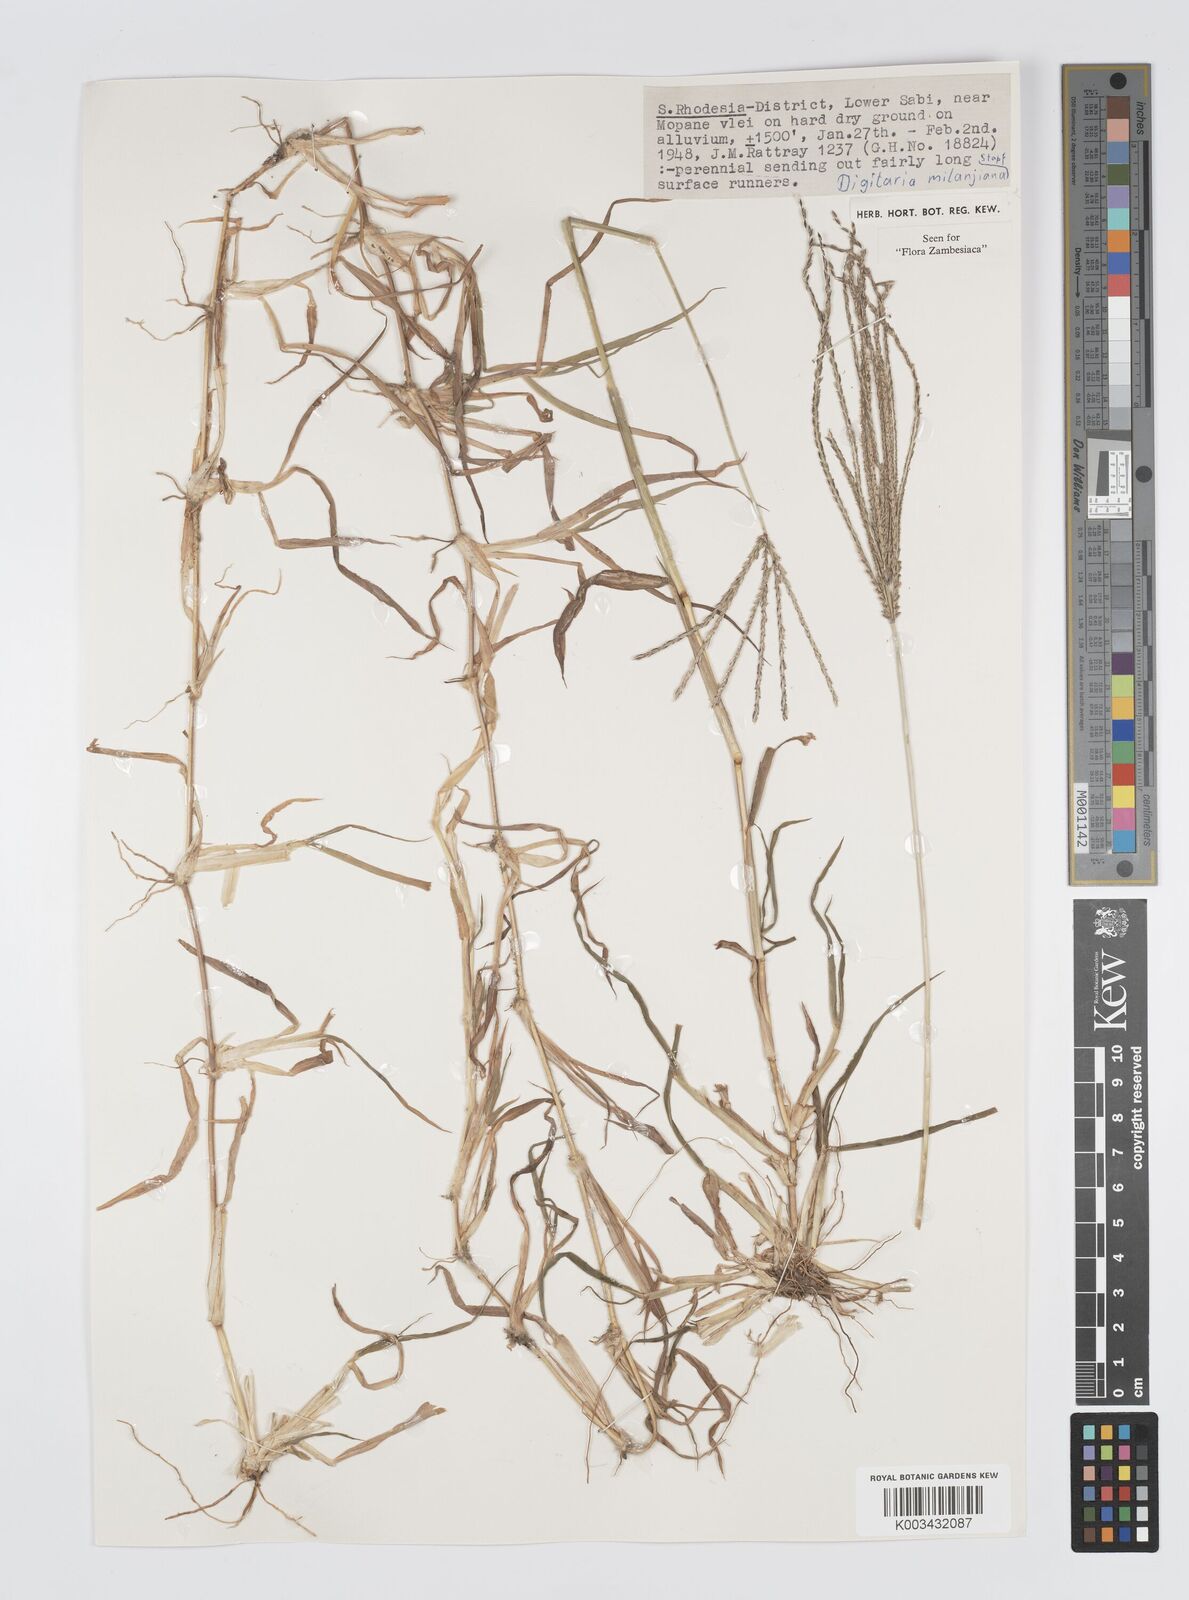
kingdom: Plantae
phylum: Tracheophyta
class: Liliopsida
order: Poales
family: Poaceae
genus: Digitaria
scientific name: Digitaria milanjiana
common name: Madagascar crabgrass
